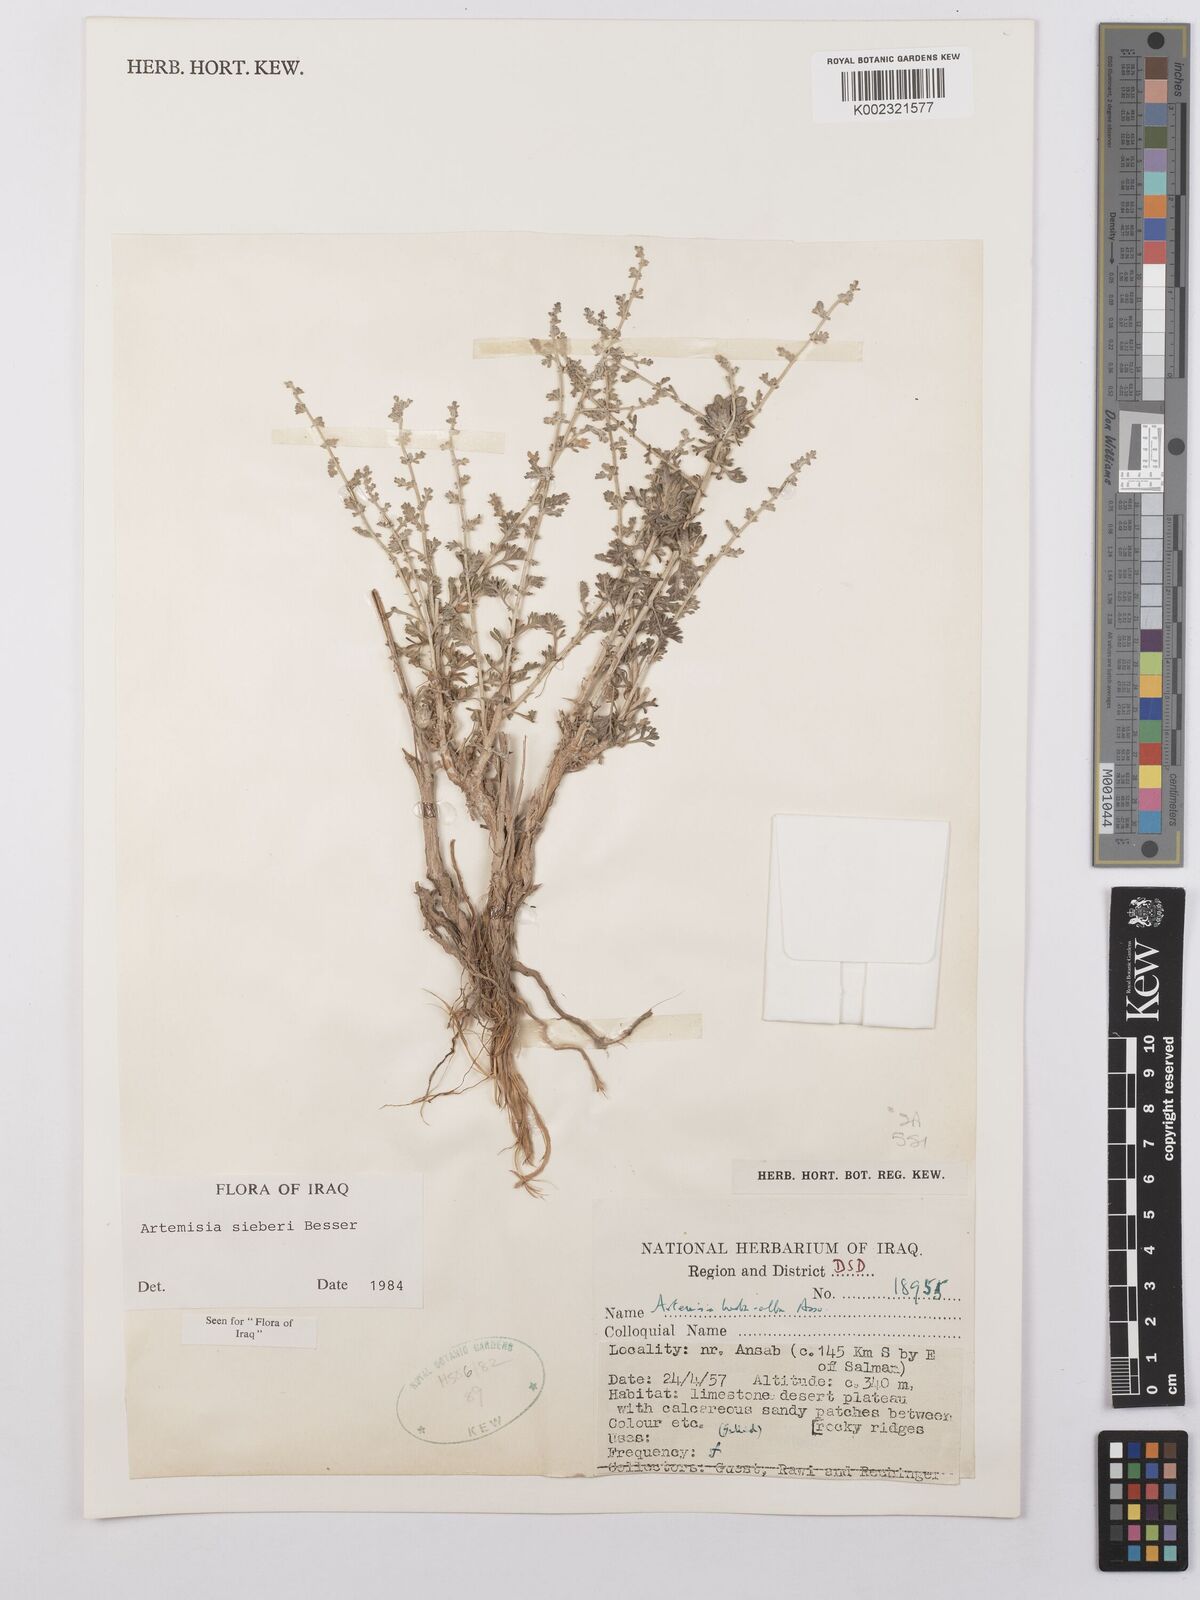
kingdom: Plantae
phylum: Tracheophyta
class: Magnoliopsida
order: Asterales
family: Asteraceae
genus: Artemisia
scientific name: Artemisia sieberi
